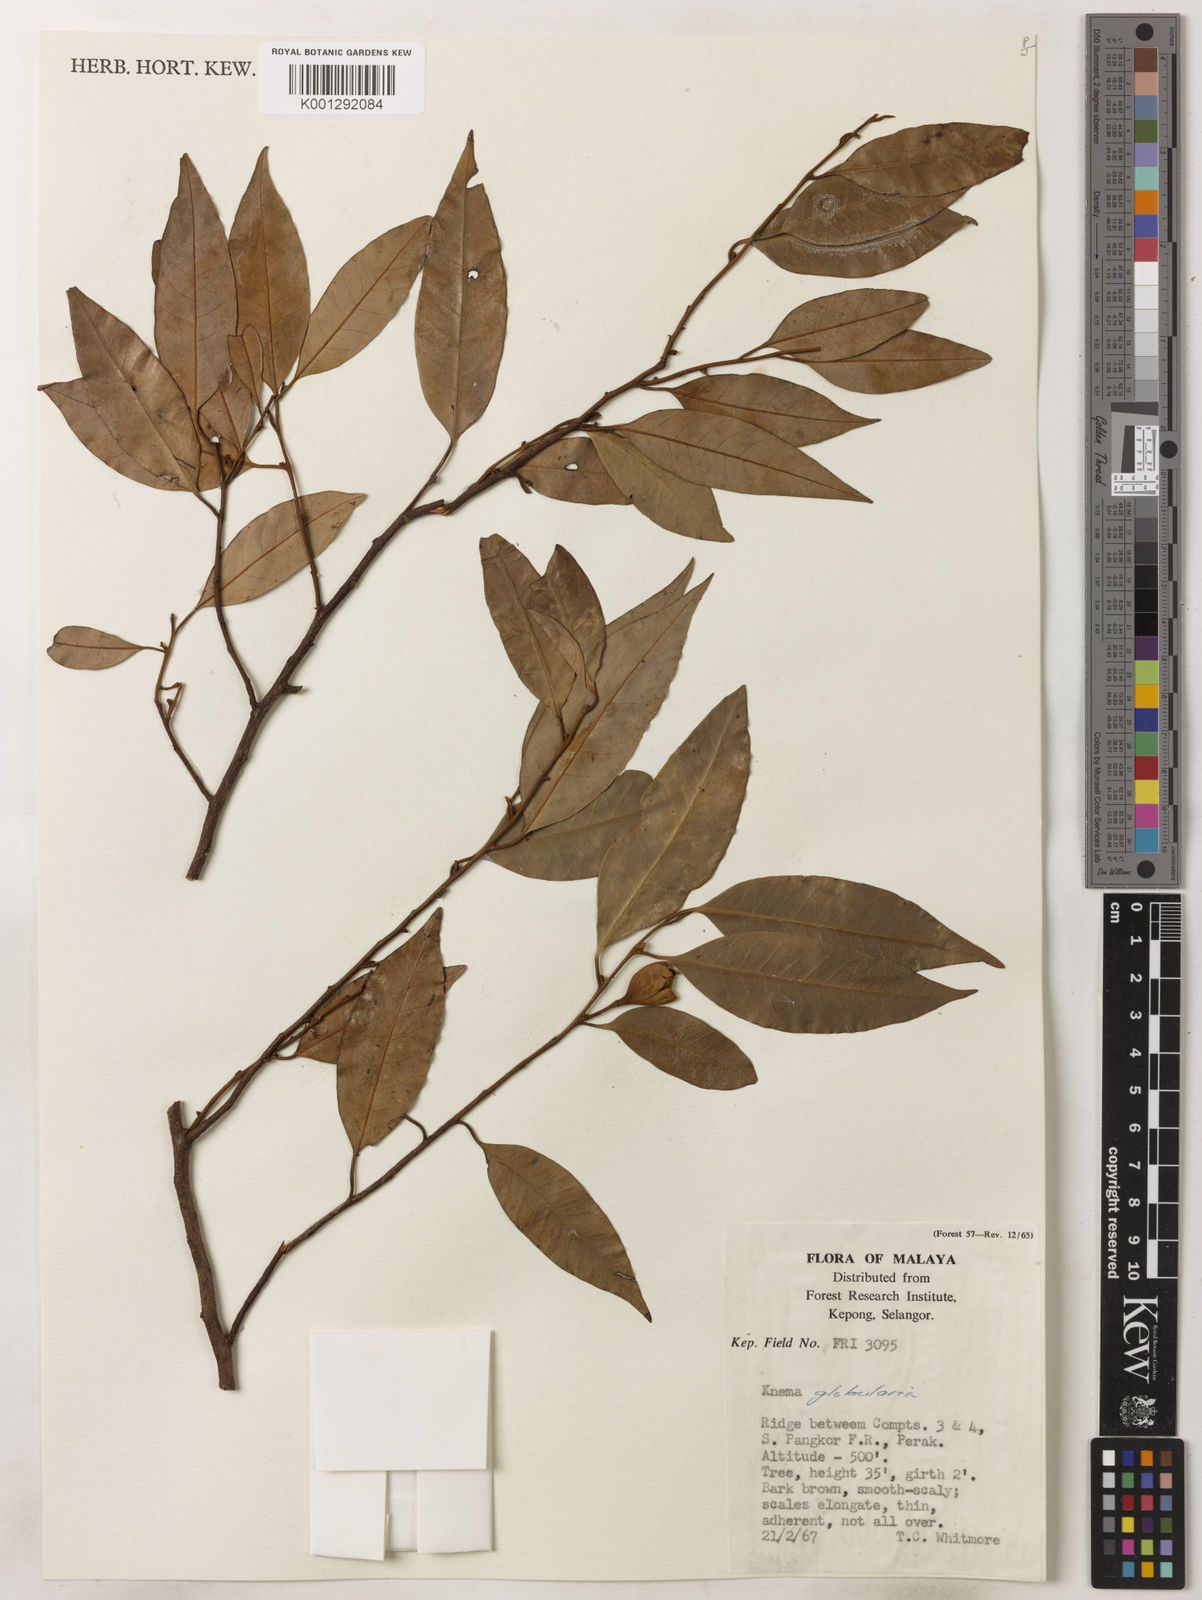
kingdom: Plantae
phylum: Tracheophyta
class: Magnoliopsida
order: Magnoliales
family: Myristicaceae
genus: Knema
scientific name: Knema globularia
